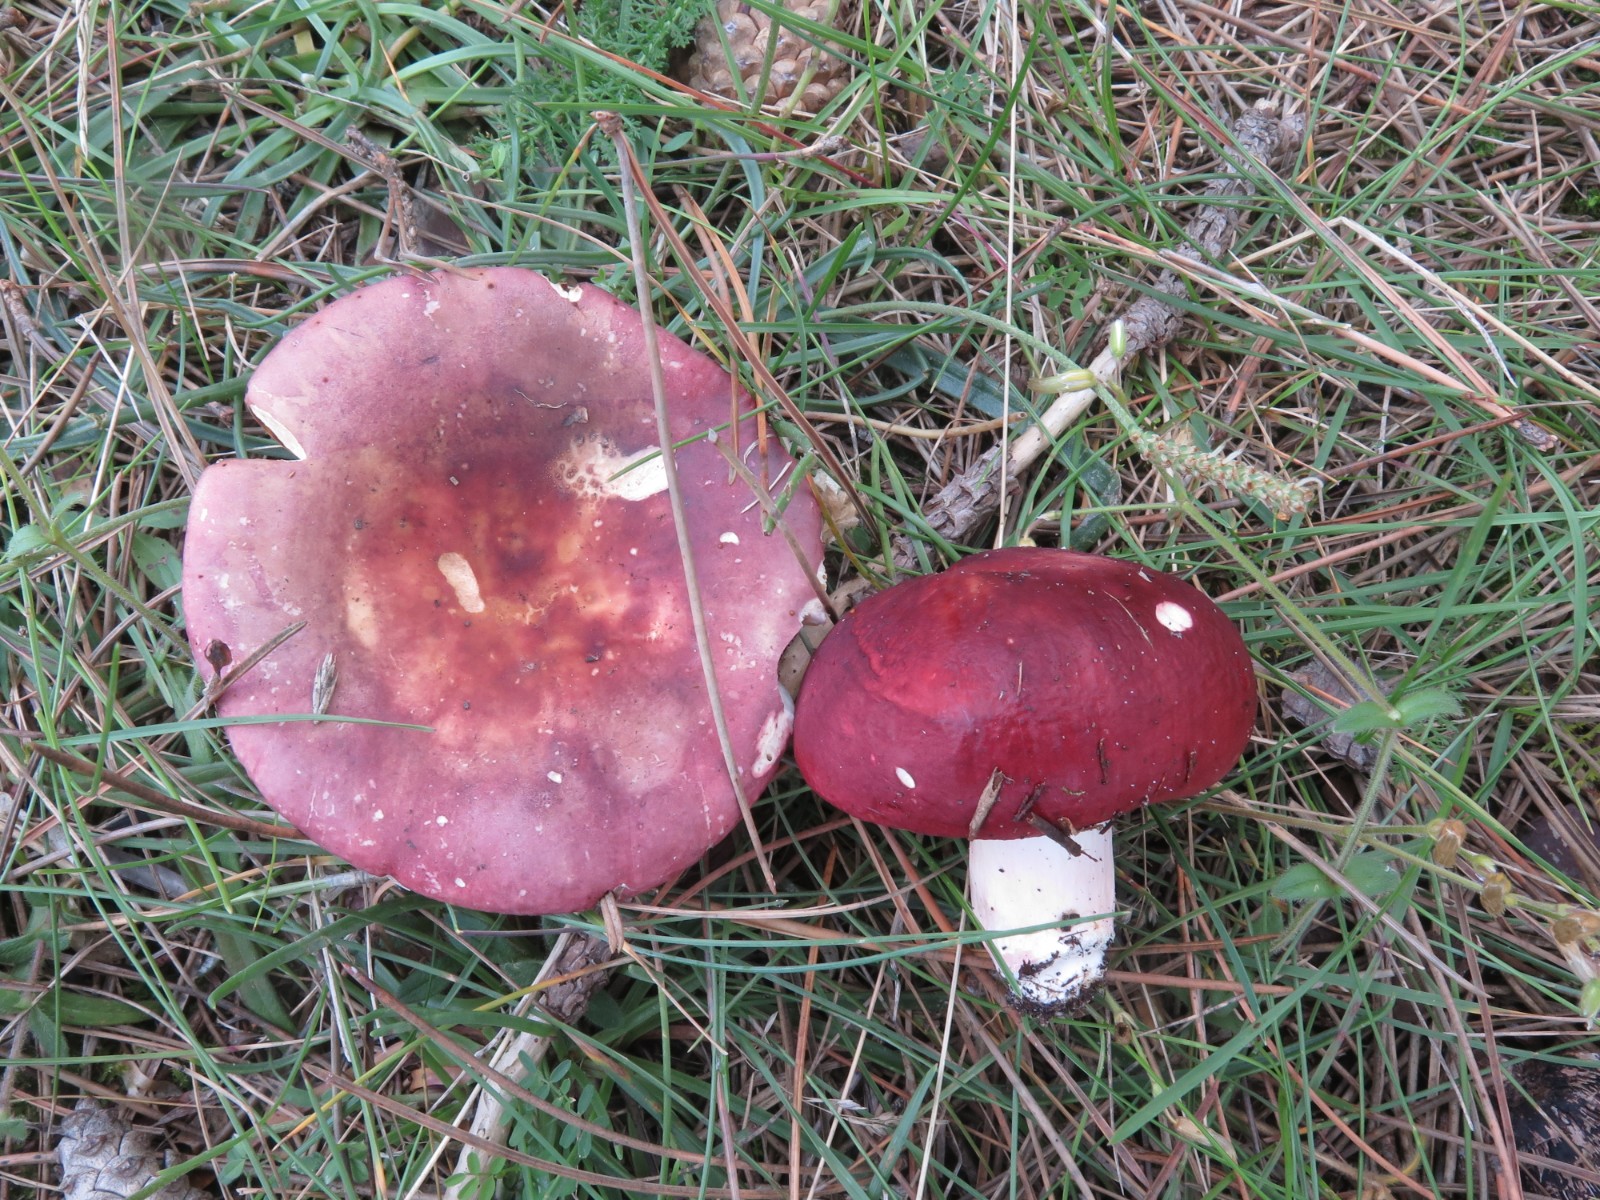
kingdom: Fungi
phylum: Basidiomycota
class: Agaricomycetes
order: Russulales
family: Russulaceae
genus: Russula
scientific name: Russula paludosa
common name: prægtig skørhat
